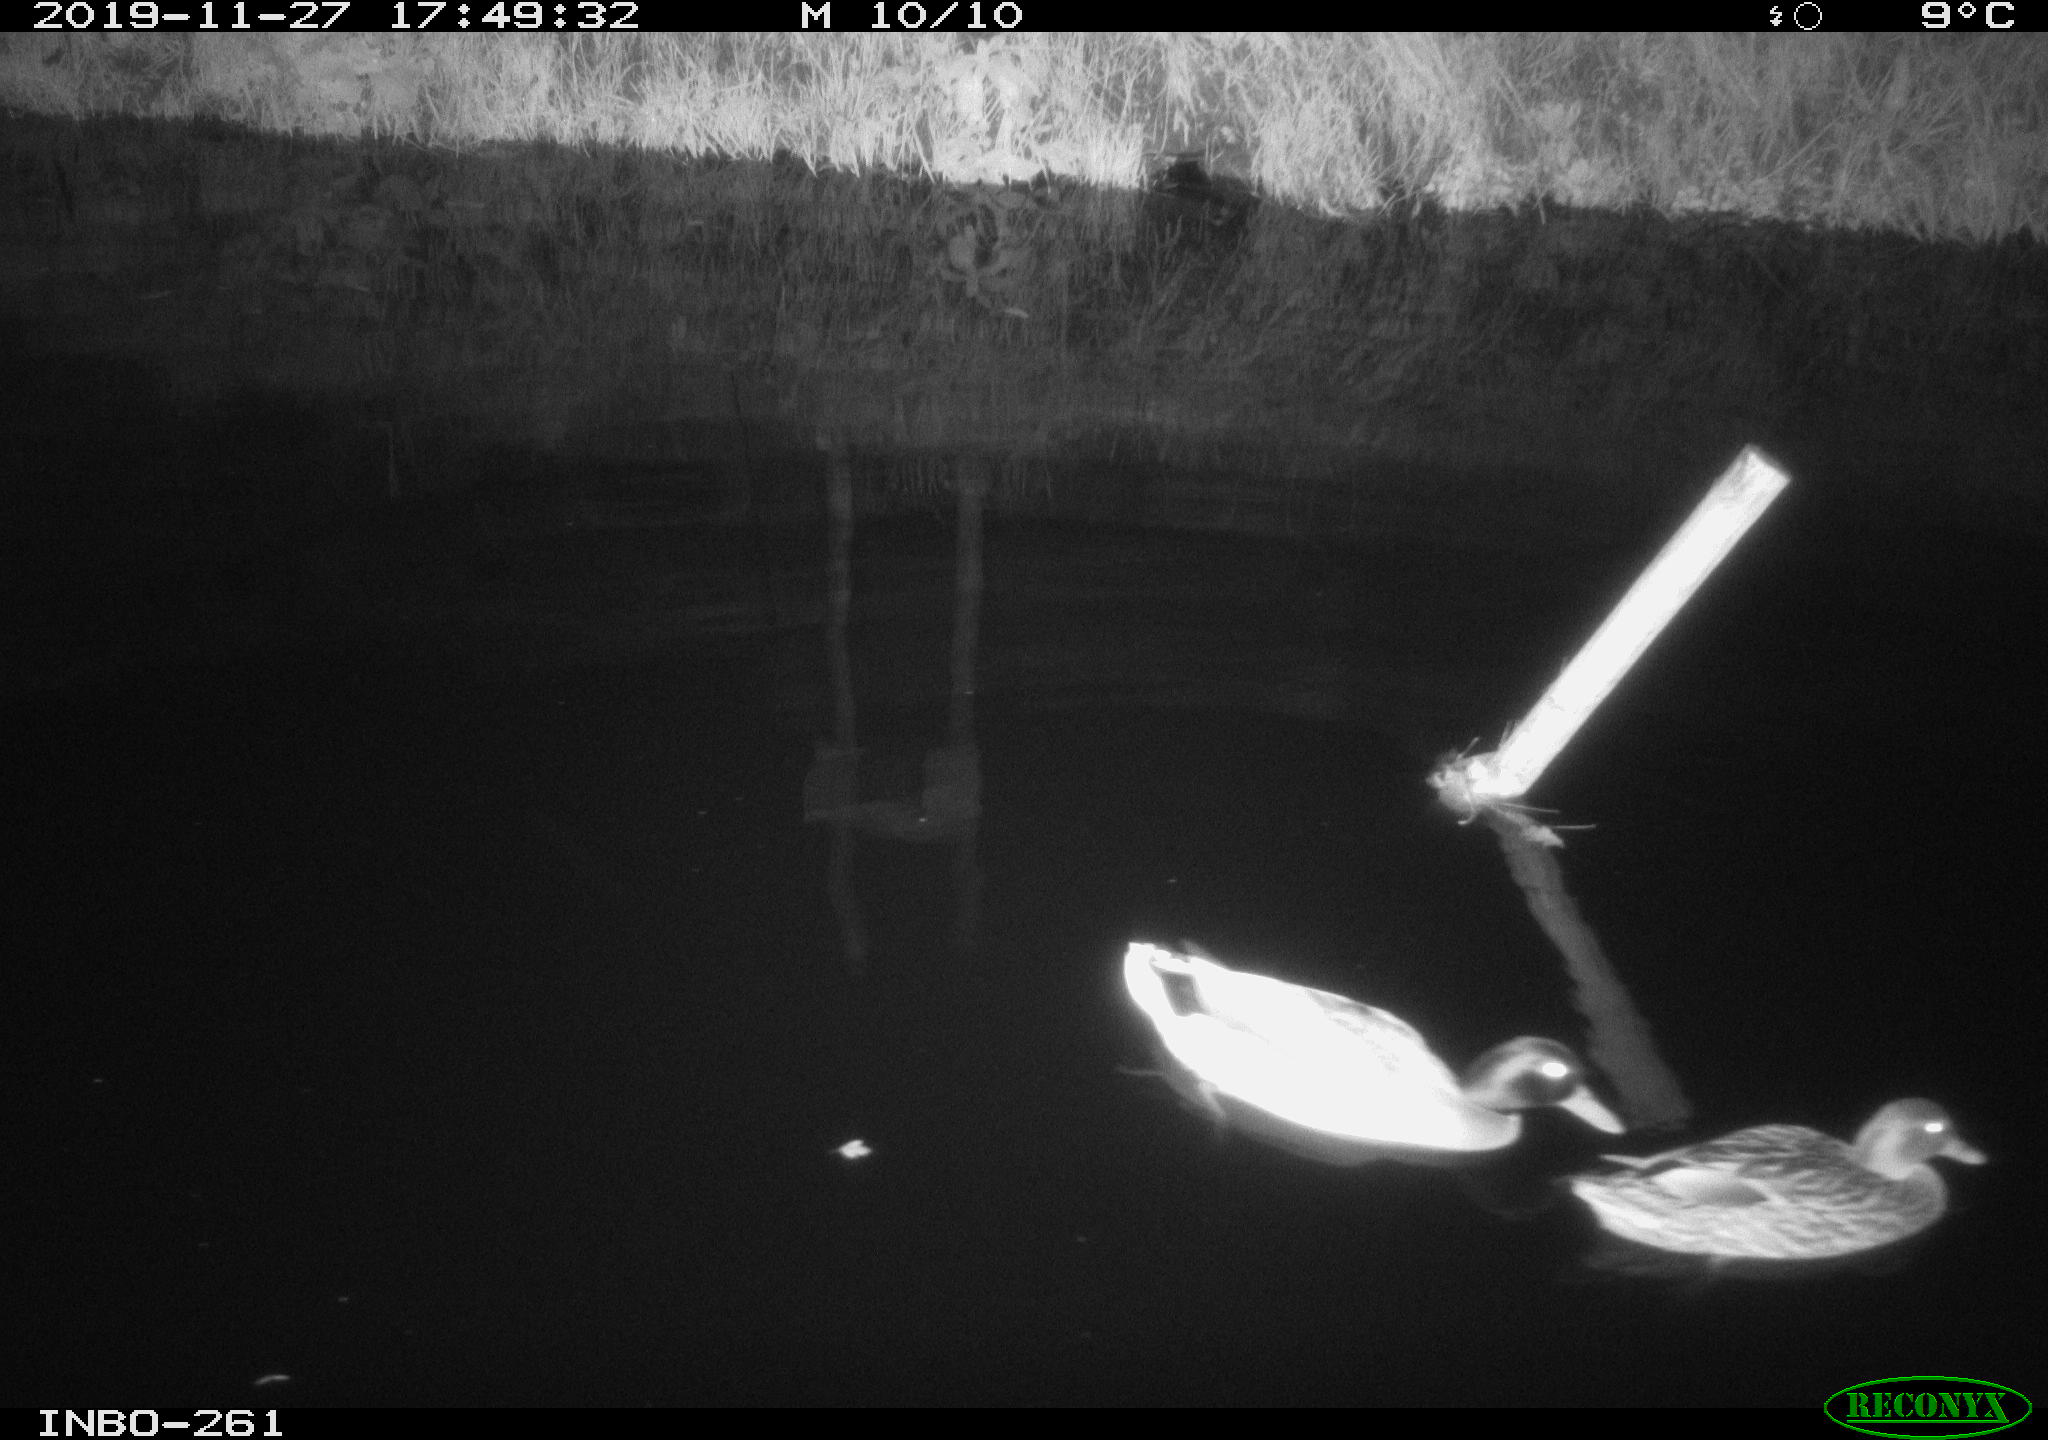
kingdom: Animalia
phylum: Chordata
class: Aves
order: Anseriformes
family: Anatidae
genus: Anas
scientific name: Anas platyrhynchos
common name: Mallard
